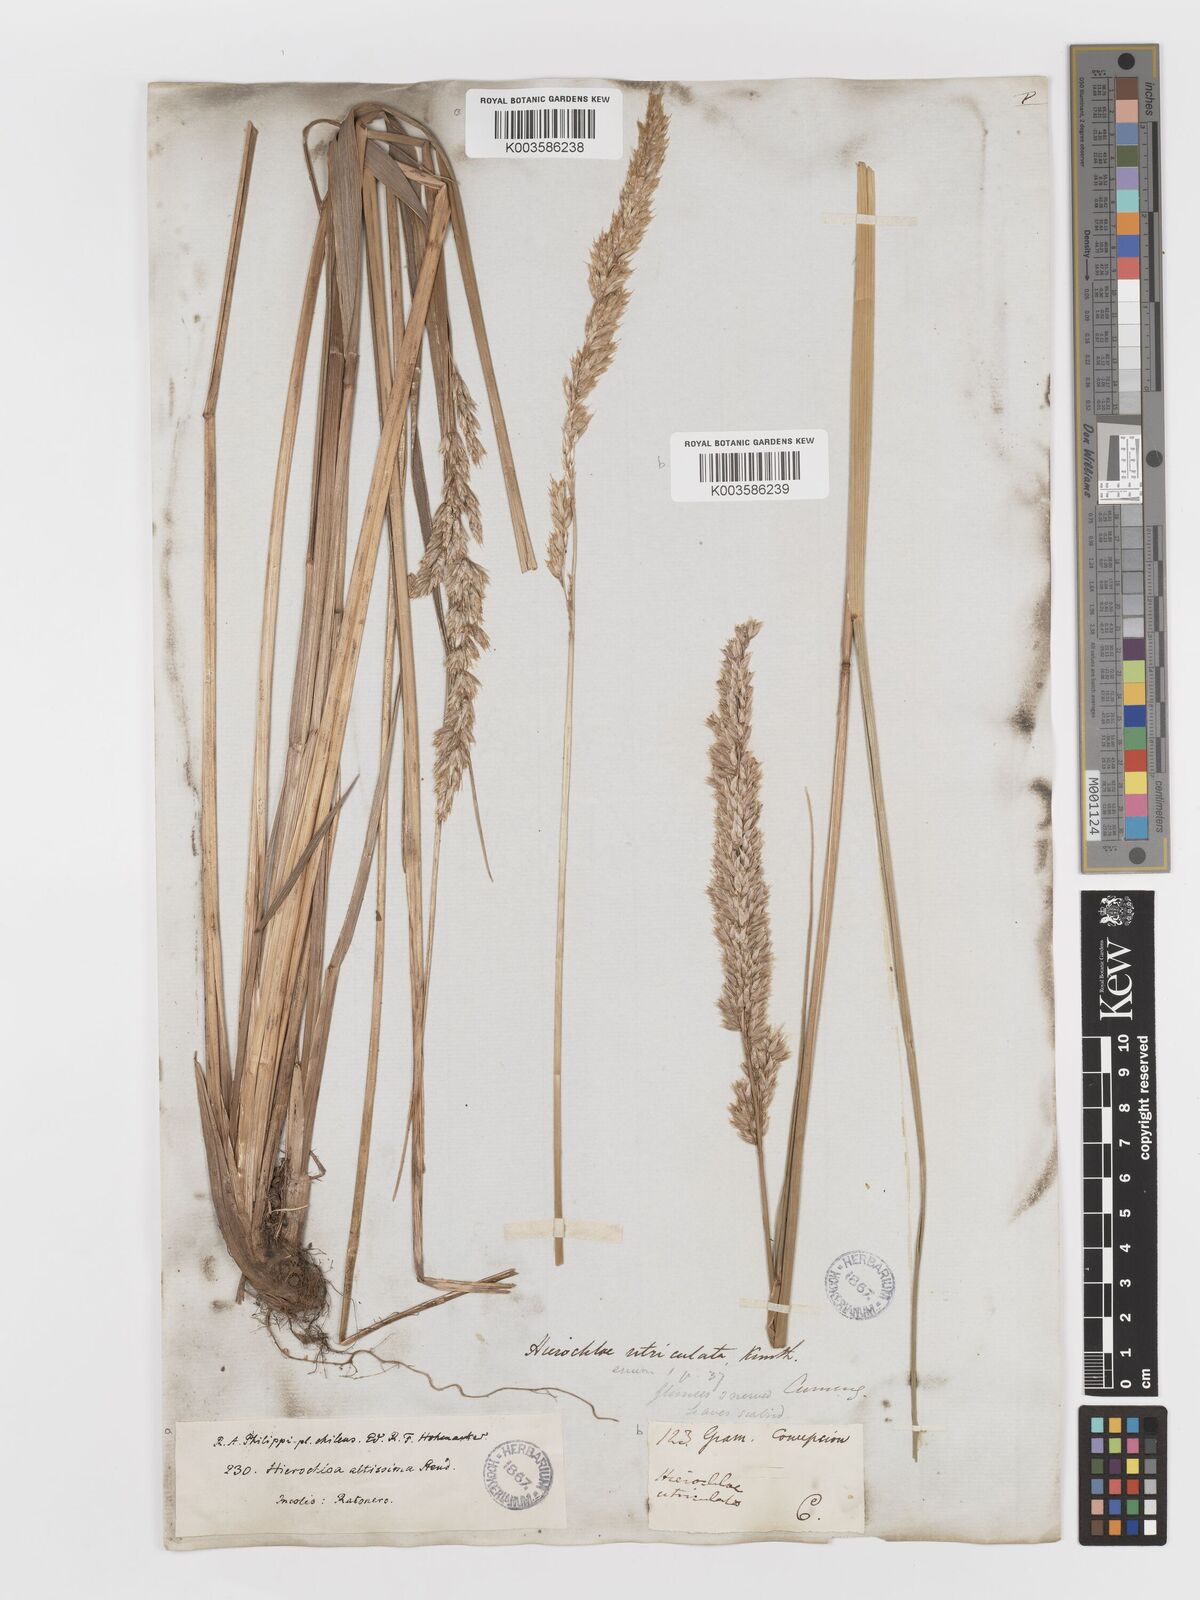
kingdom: Plantae
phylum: Tracheophyta
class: Liliopsida
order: Poales
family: Poaceae
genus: Anthoxanthum
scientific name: Anthoxanthum redolens
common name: Sweet holy grass
